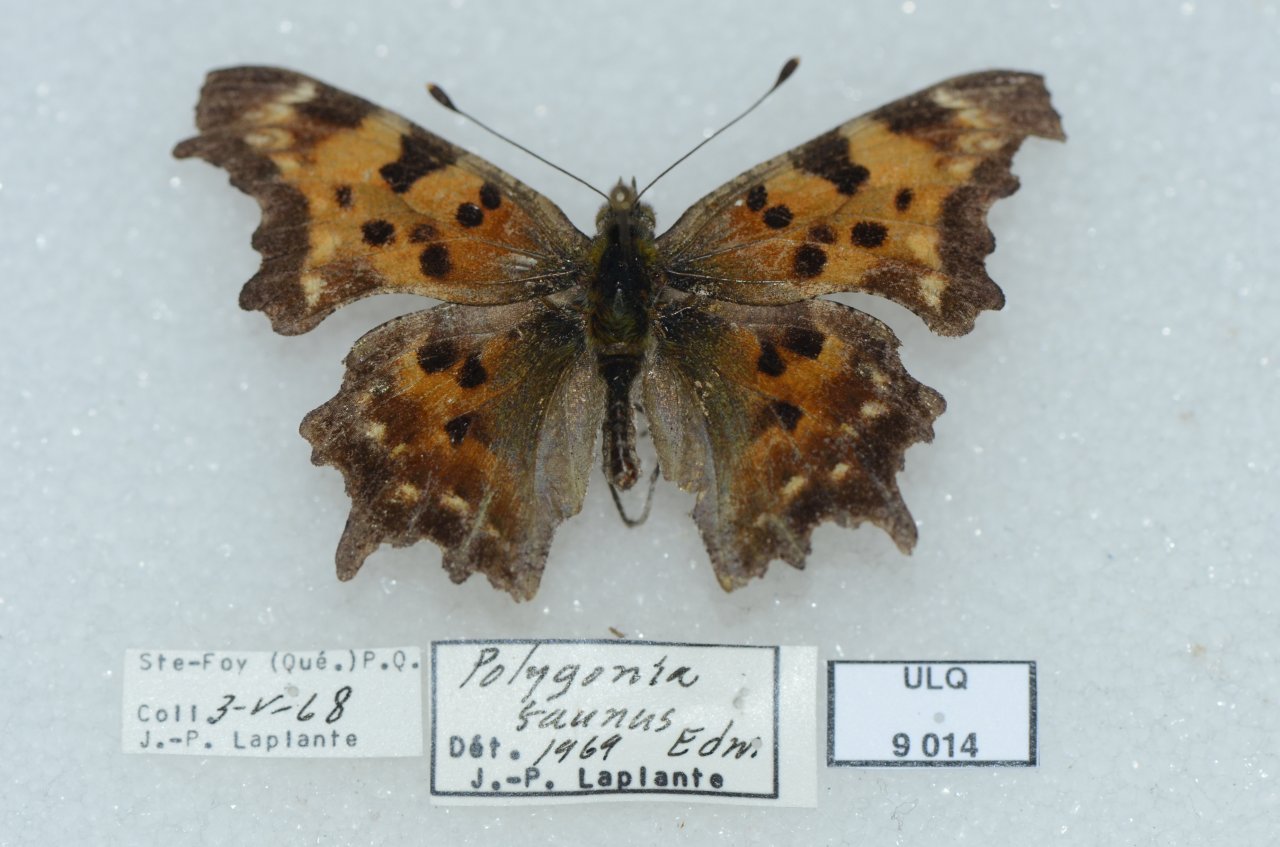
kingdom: Animalia
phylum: Arthropoda
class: Insecta
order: Lepidoptera
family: Nymphalidae
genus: Polygonia
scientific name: Polygonia faunus
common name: Green Comma
